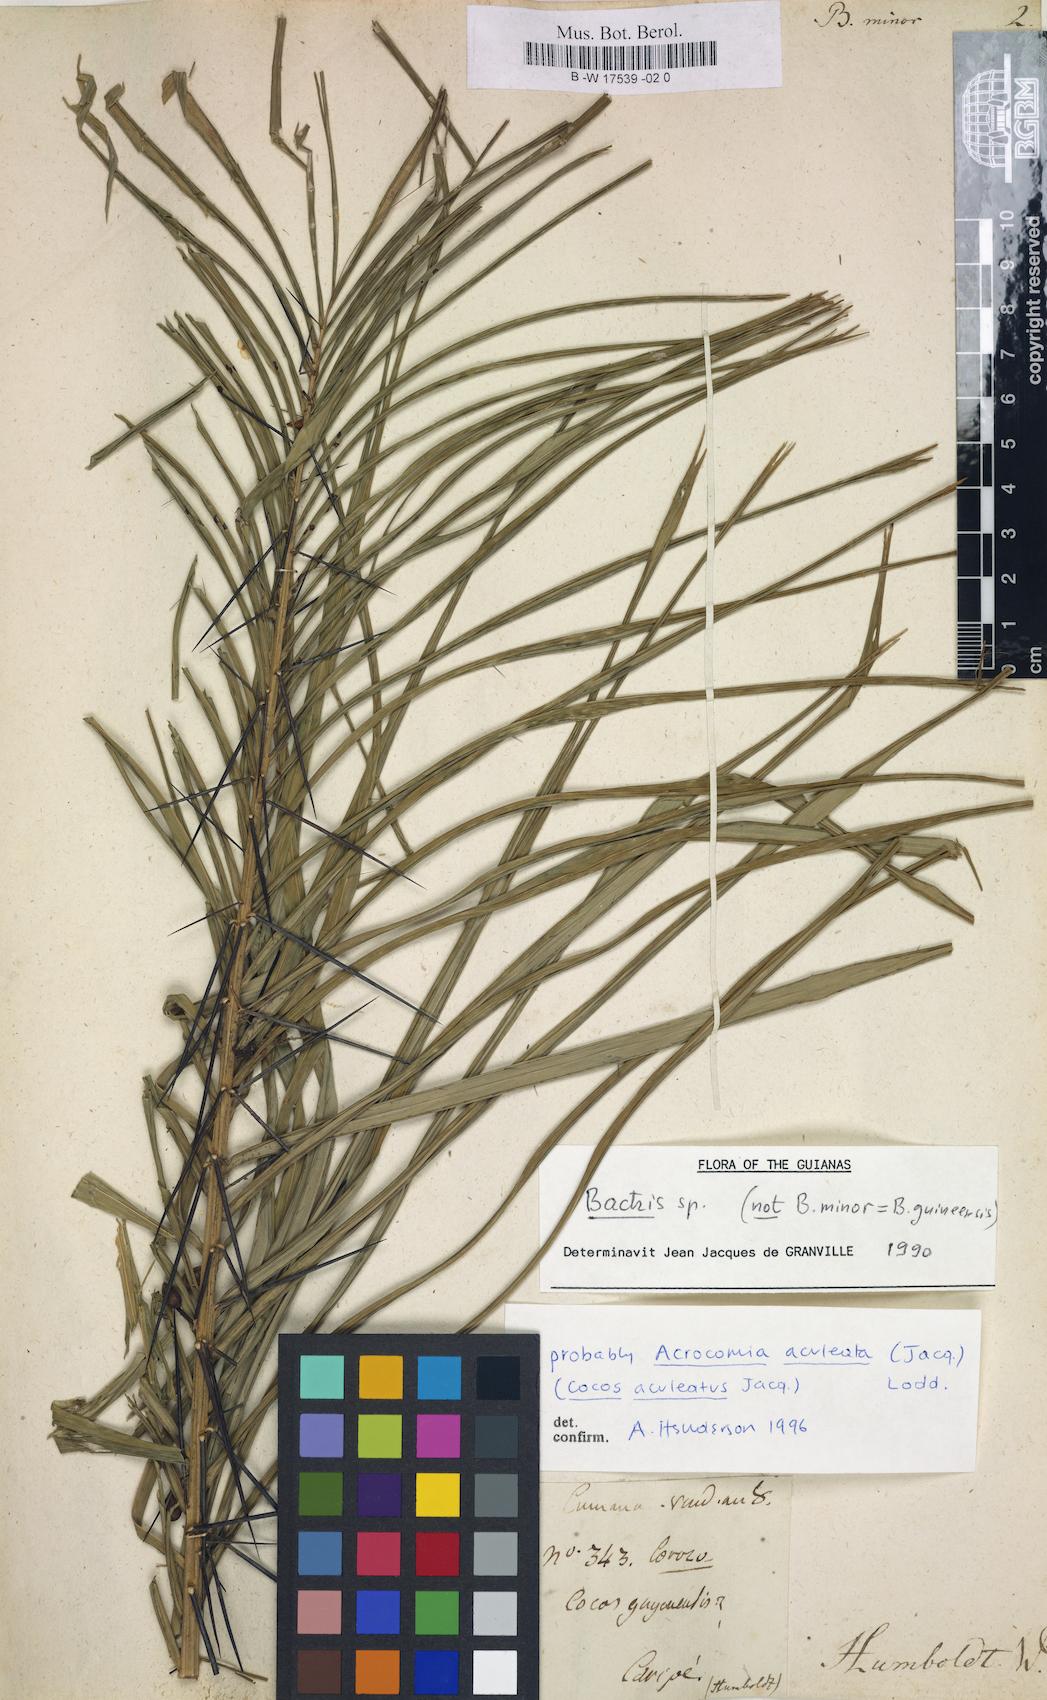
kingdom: Plantae
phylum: Tracheophyta
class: Liliopsida
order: Arecales
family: Arecaceae
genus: Bactris
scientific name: Bactris guineensis
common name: Tobago cane
